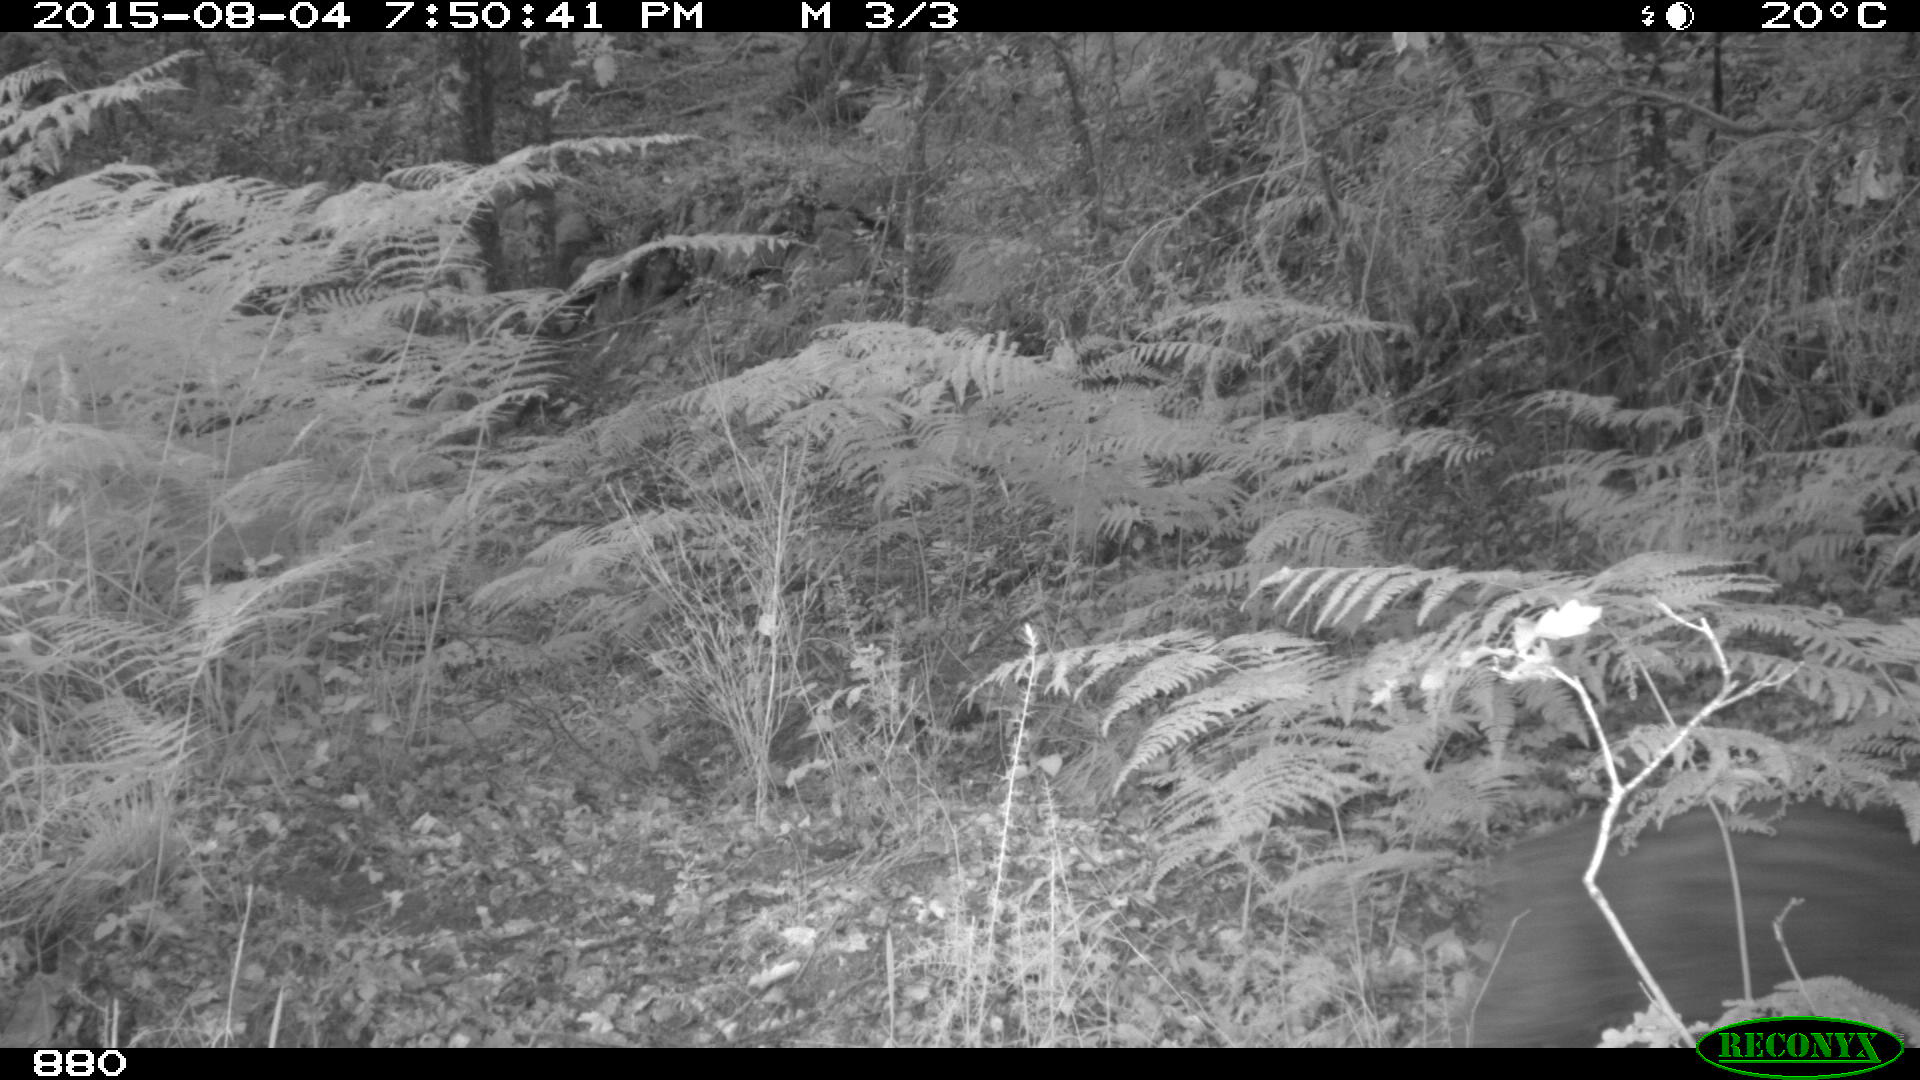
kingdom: Animalia
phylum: Chordata
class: Mammalia
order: Artiodactyla
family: Suidae
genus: Sus
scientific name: Sus scrofa
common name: Wild boar
